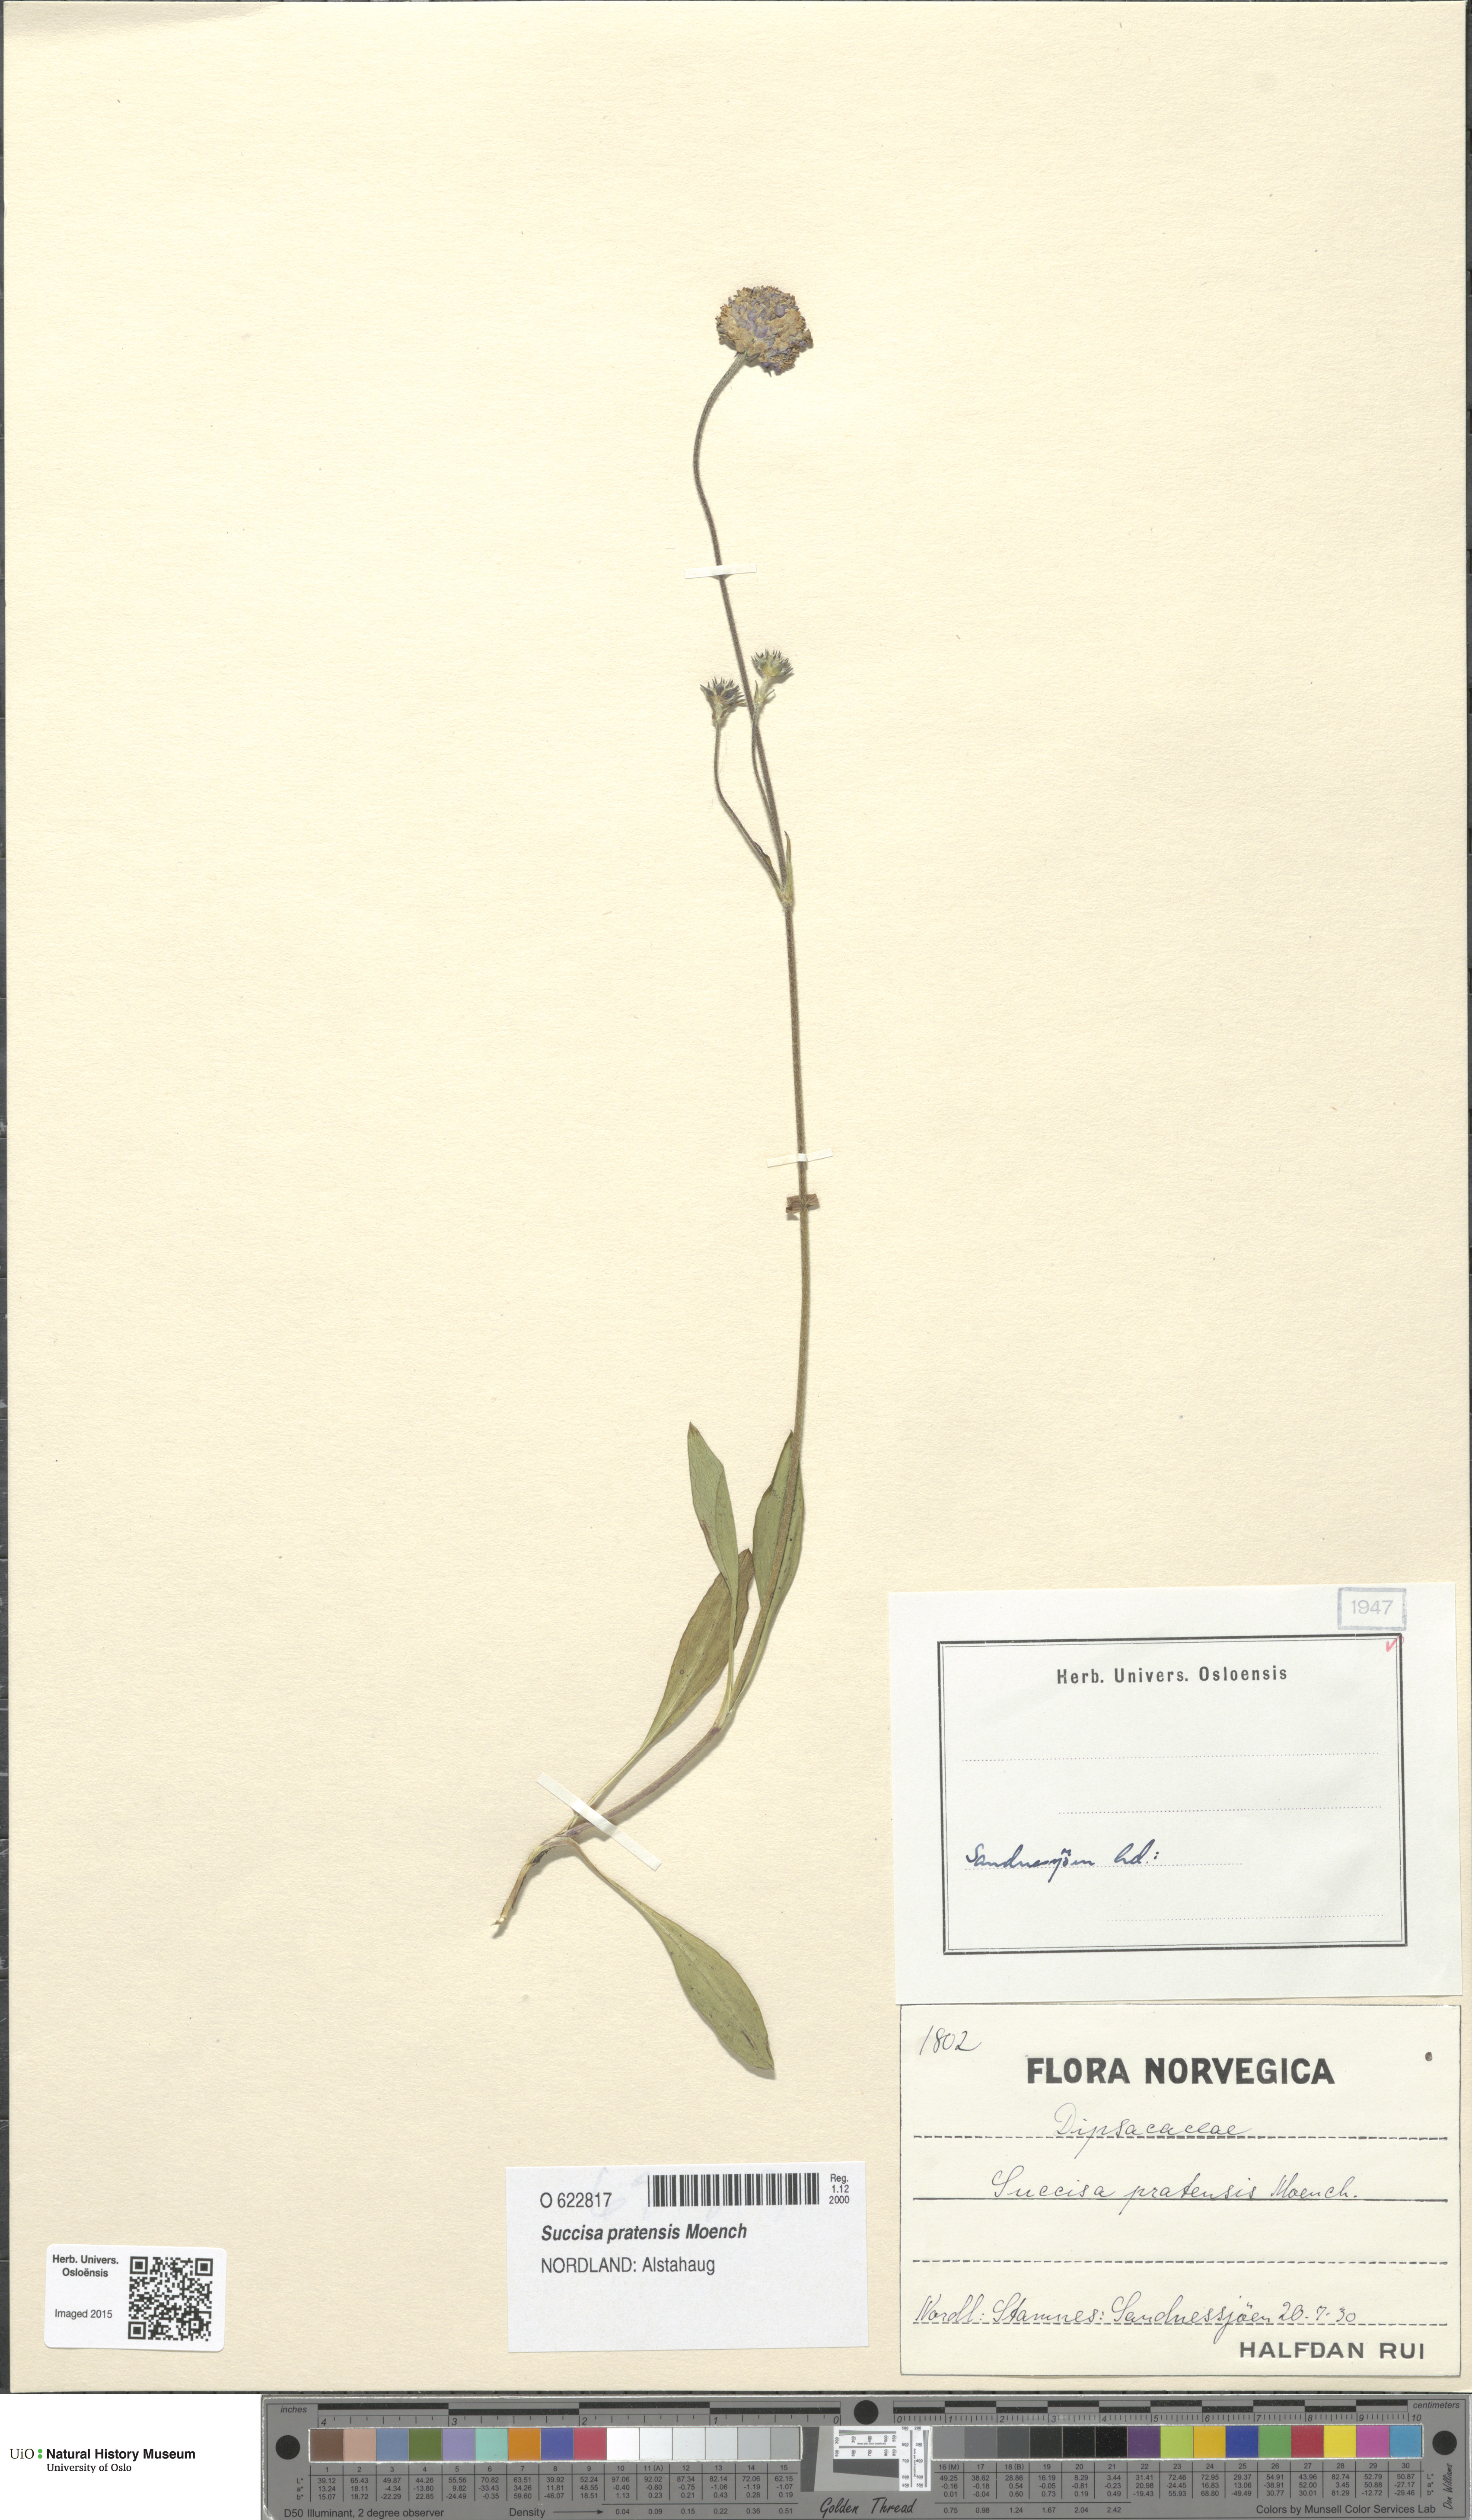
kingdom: Plantae
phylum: Tracheophyta
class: Magnoliopsida
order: Dipsacales
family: Caprifoliaceae
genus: Succisa
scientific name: Succisa pratensis
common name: Devil's-bit
